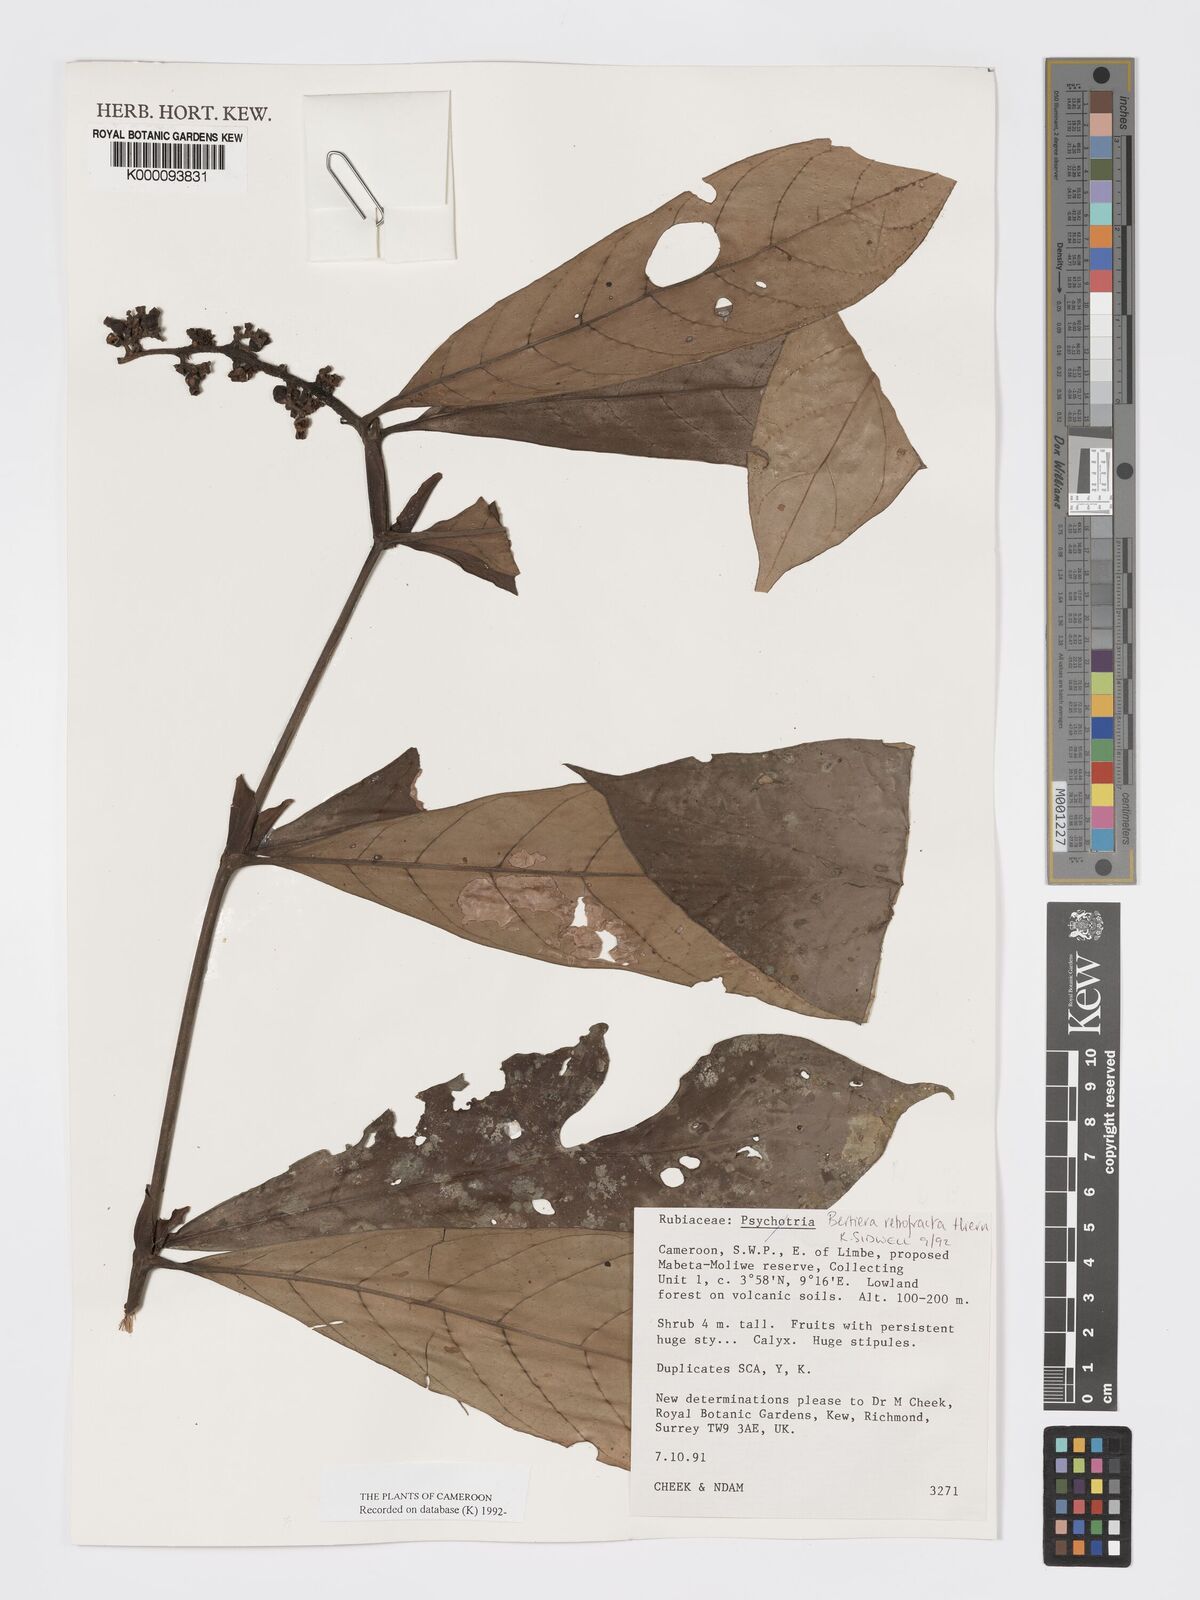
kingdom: Plantae
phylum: Tracheophyta
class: Magnoliopsida
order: Gentianales
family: Rubiaceae
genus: Bertiera
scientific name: Bertiera retrofracta
